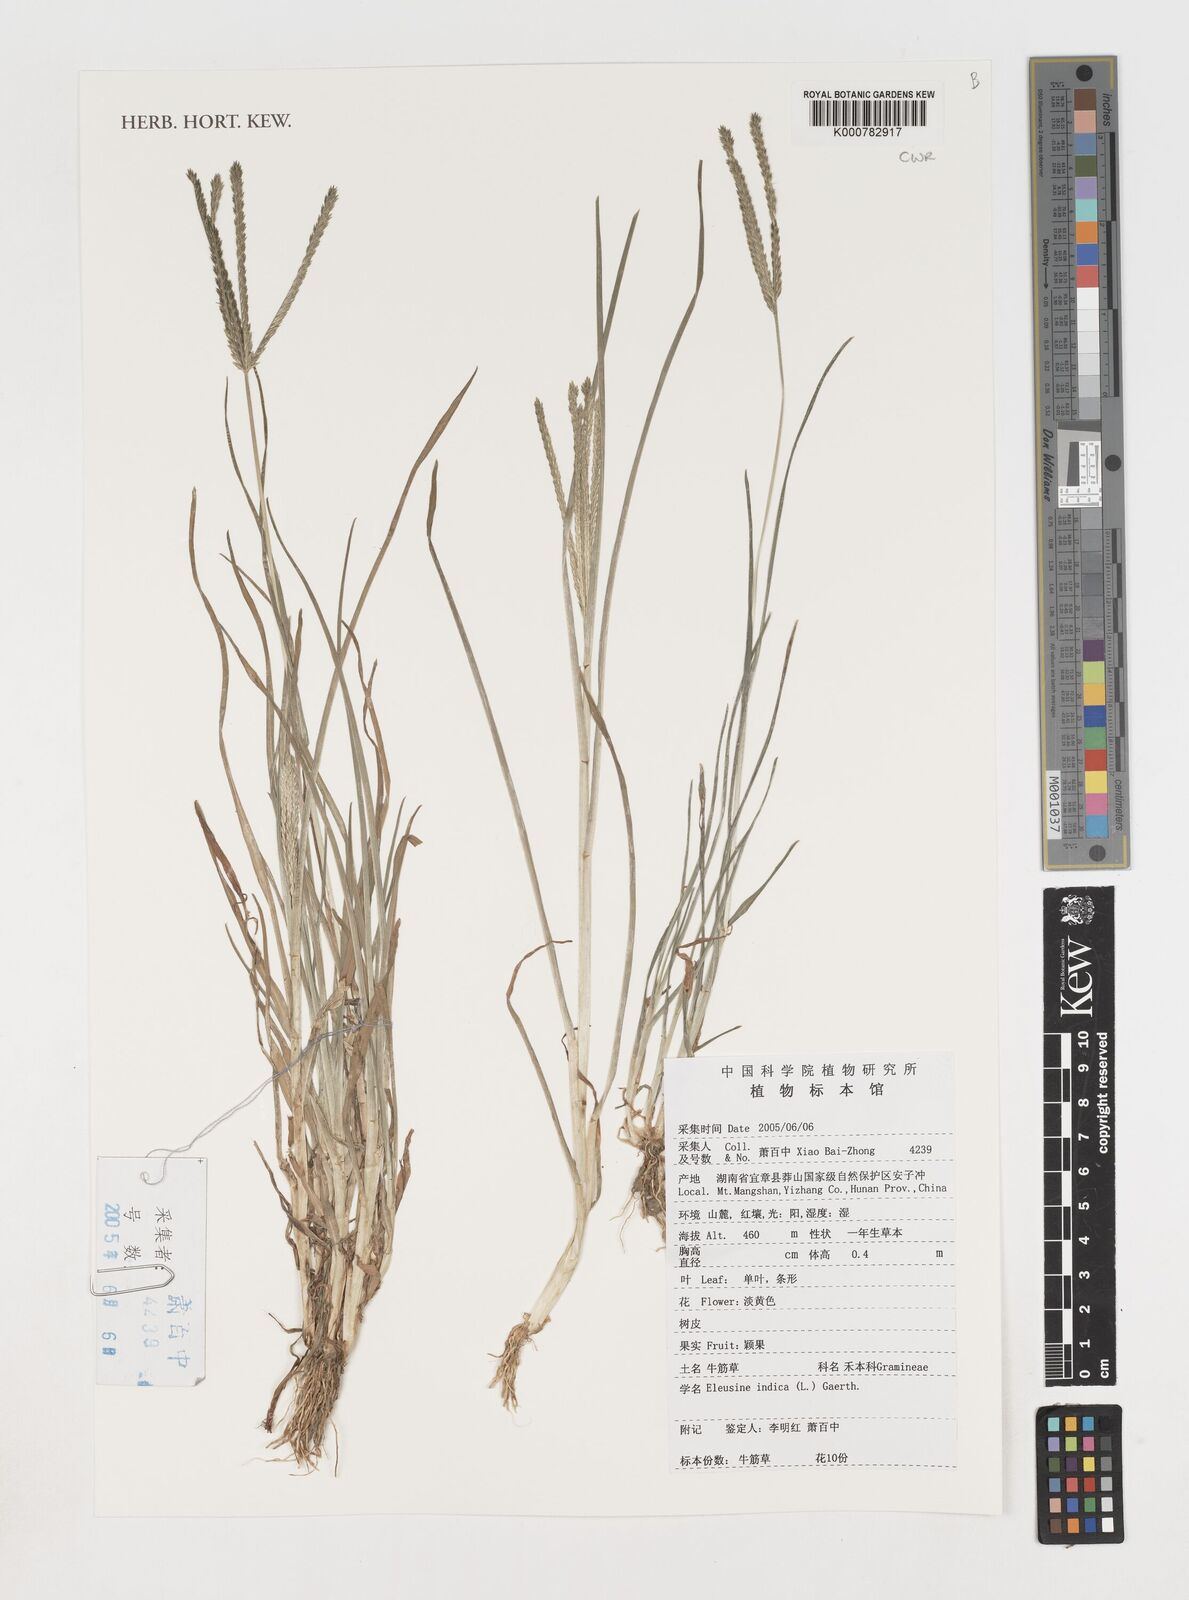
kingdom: Plantae
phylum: Tracheophyta
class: Liliopsida
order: Poales
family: Poaceae
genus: Eleusine
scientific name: Eleusine indica
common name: Yard-grass
